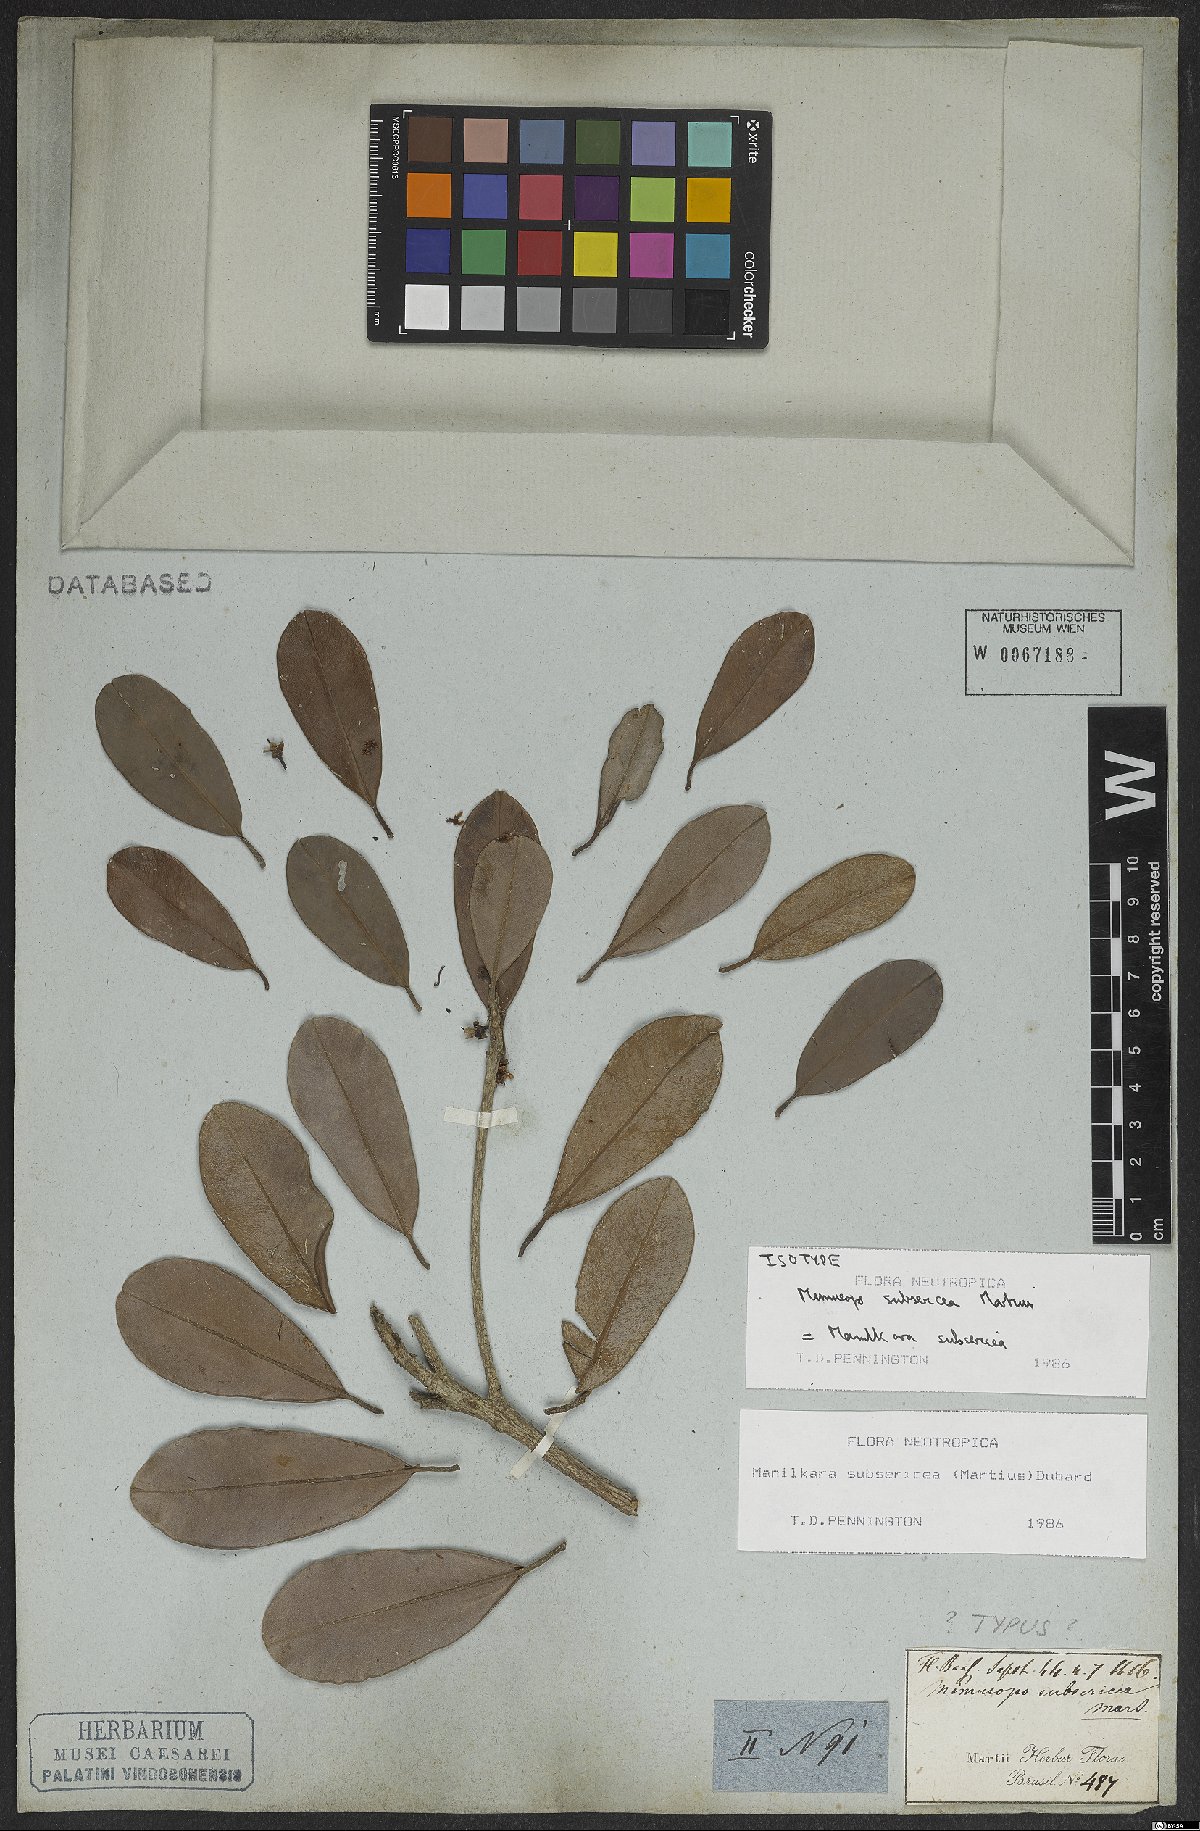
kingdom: Plantae
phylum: Tracheophyta
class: Magnoliopsida
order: Ericales
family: Sapotaceae
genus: Manilkara
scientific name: Manilkara subsericea
